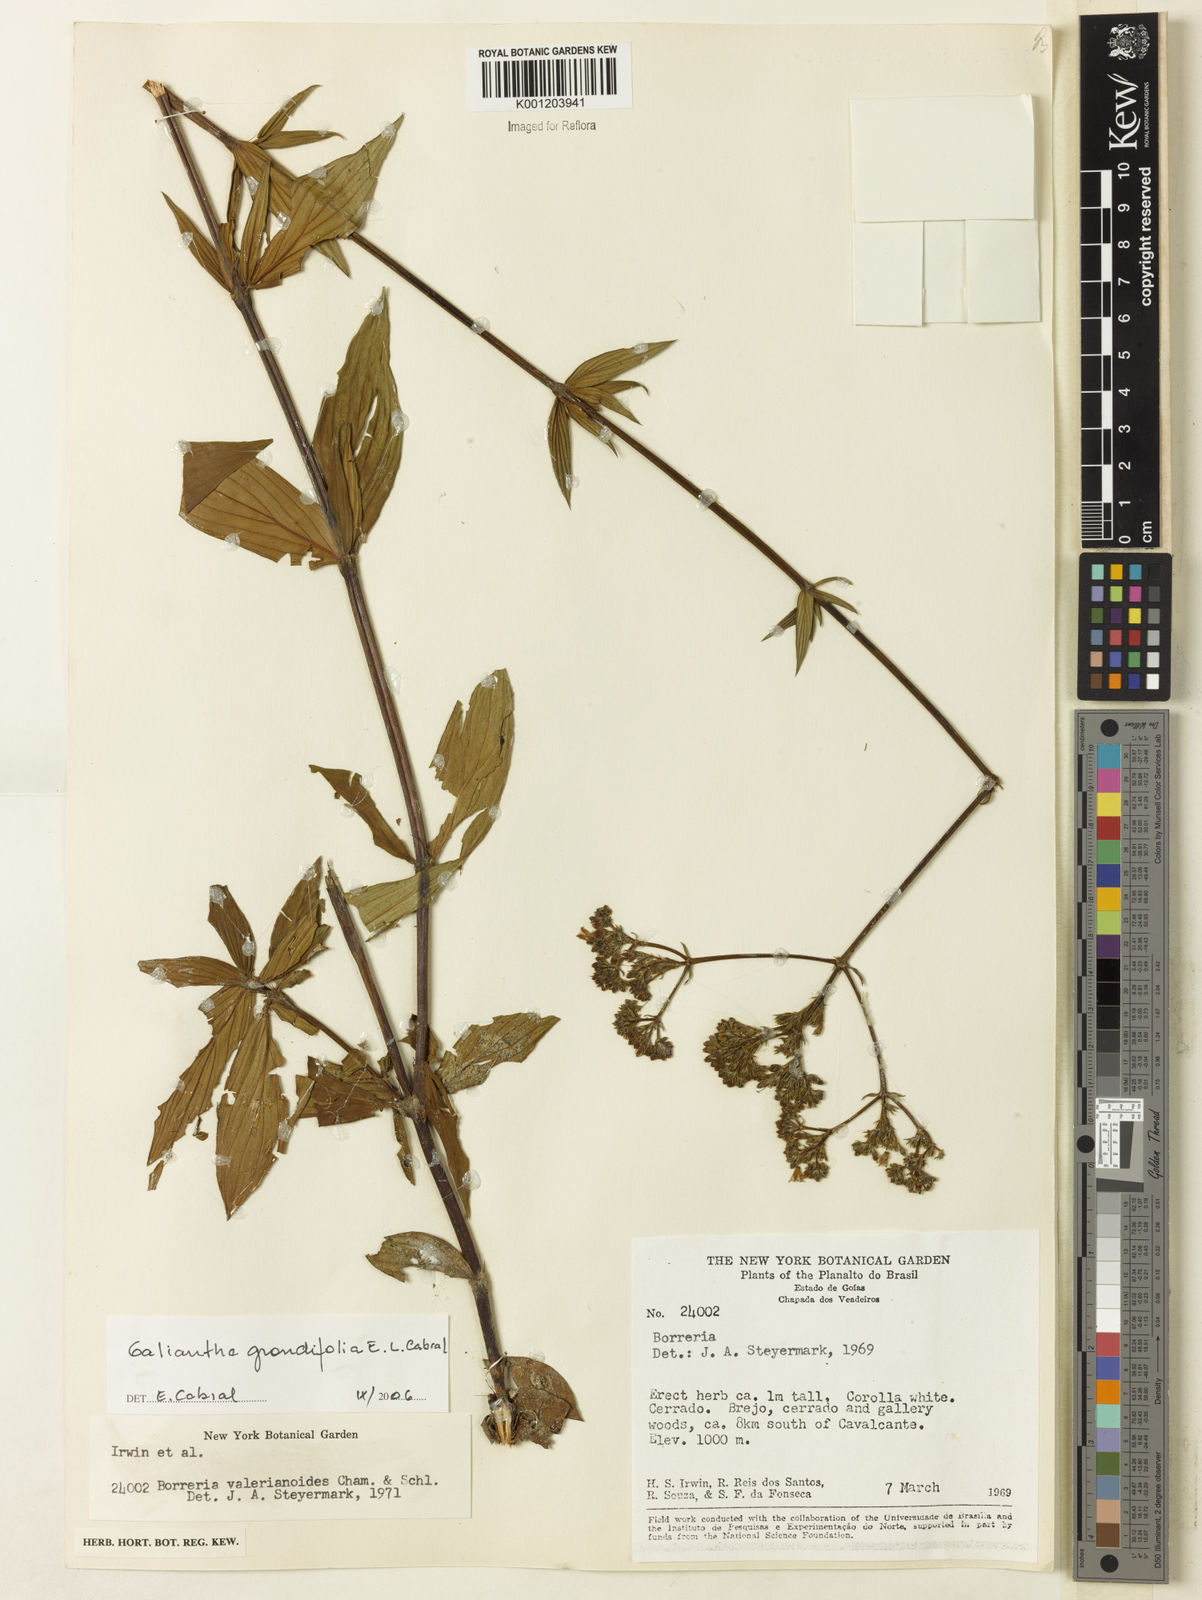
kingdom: Plantae
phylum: Tracheophyta
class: Magnoliopsida
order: Gentianales
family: Rubiaceae
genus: Galianthe
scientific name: Galianthe grandifolia
